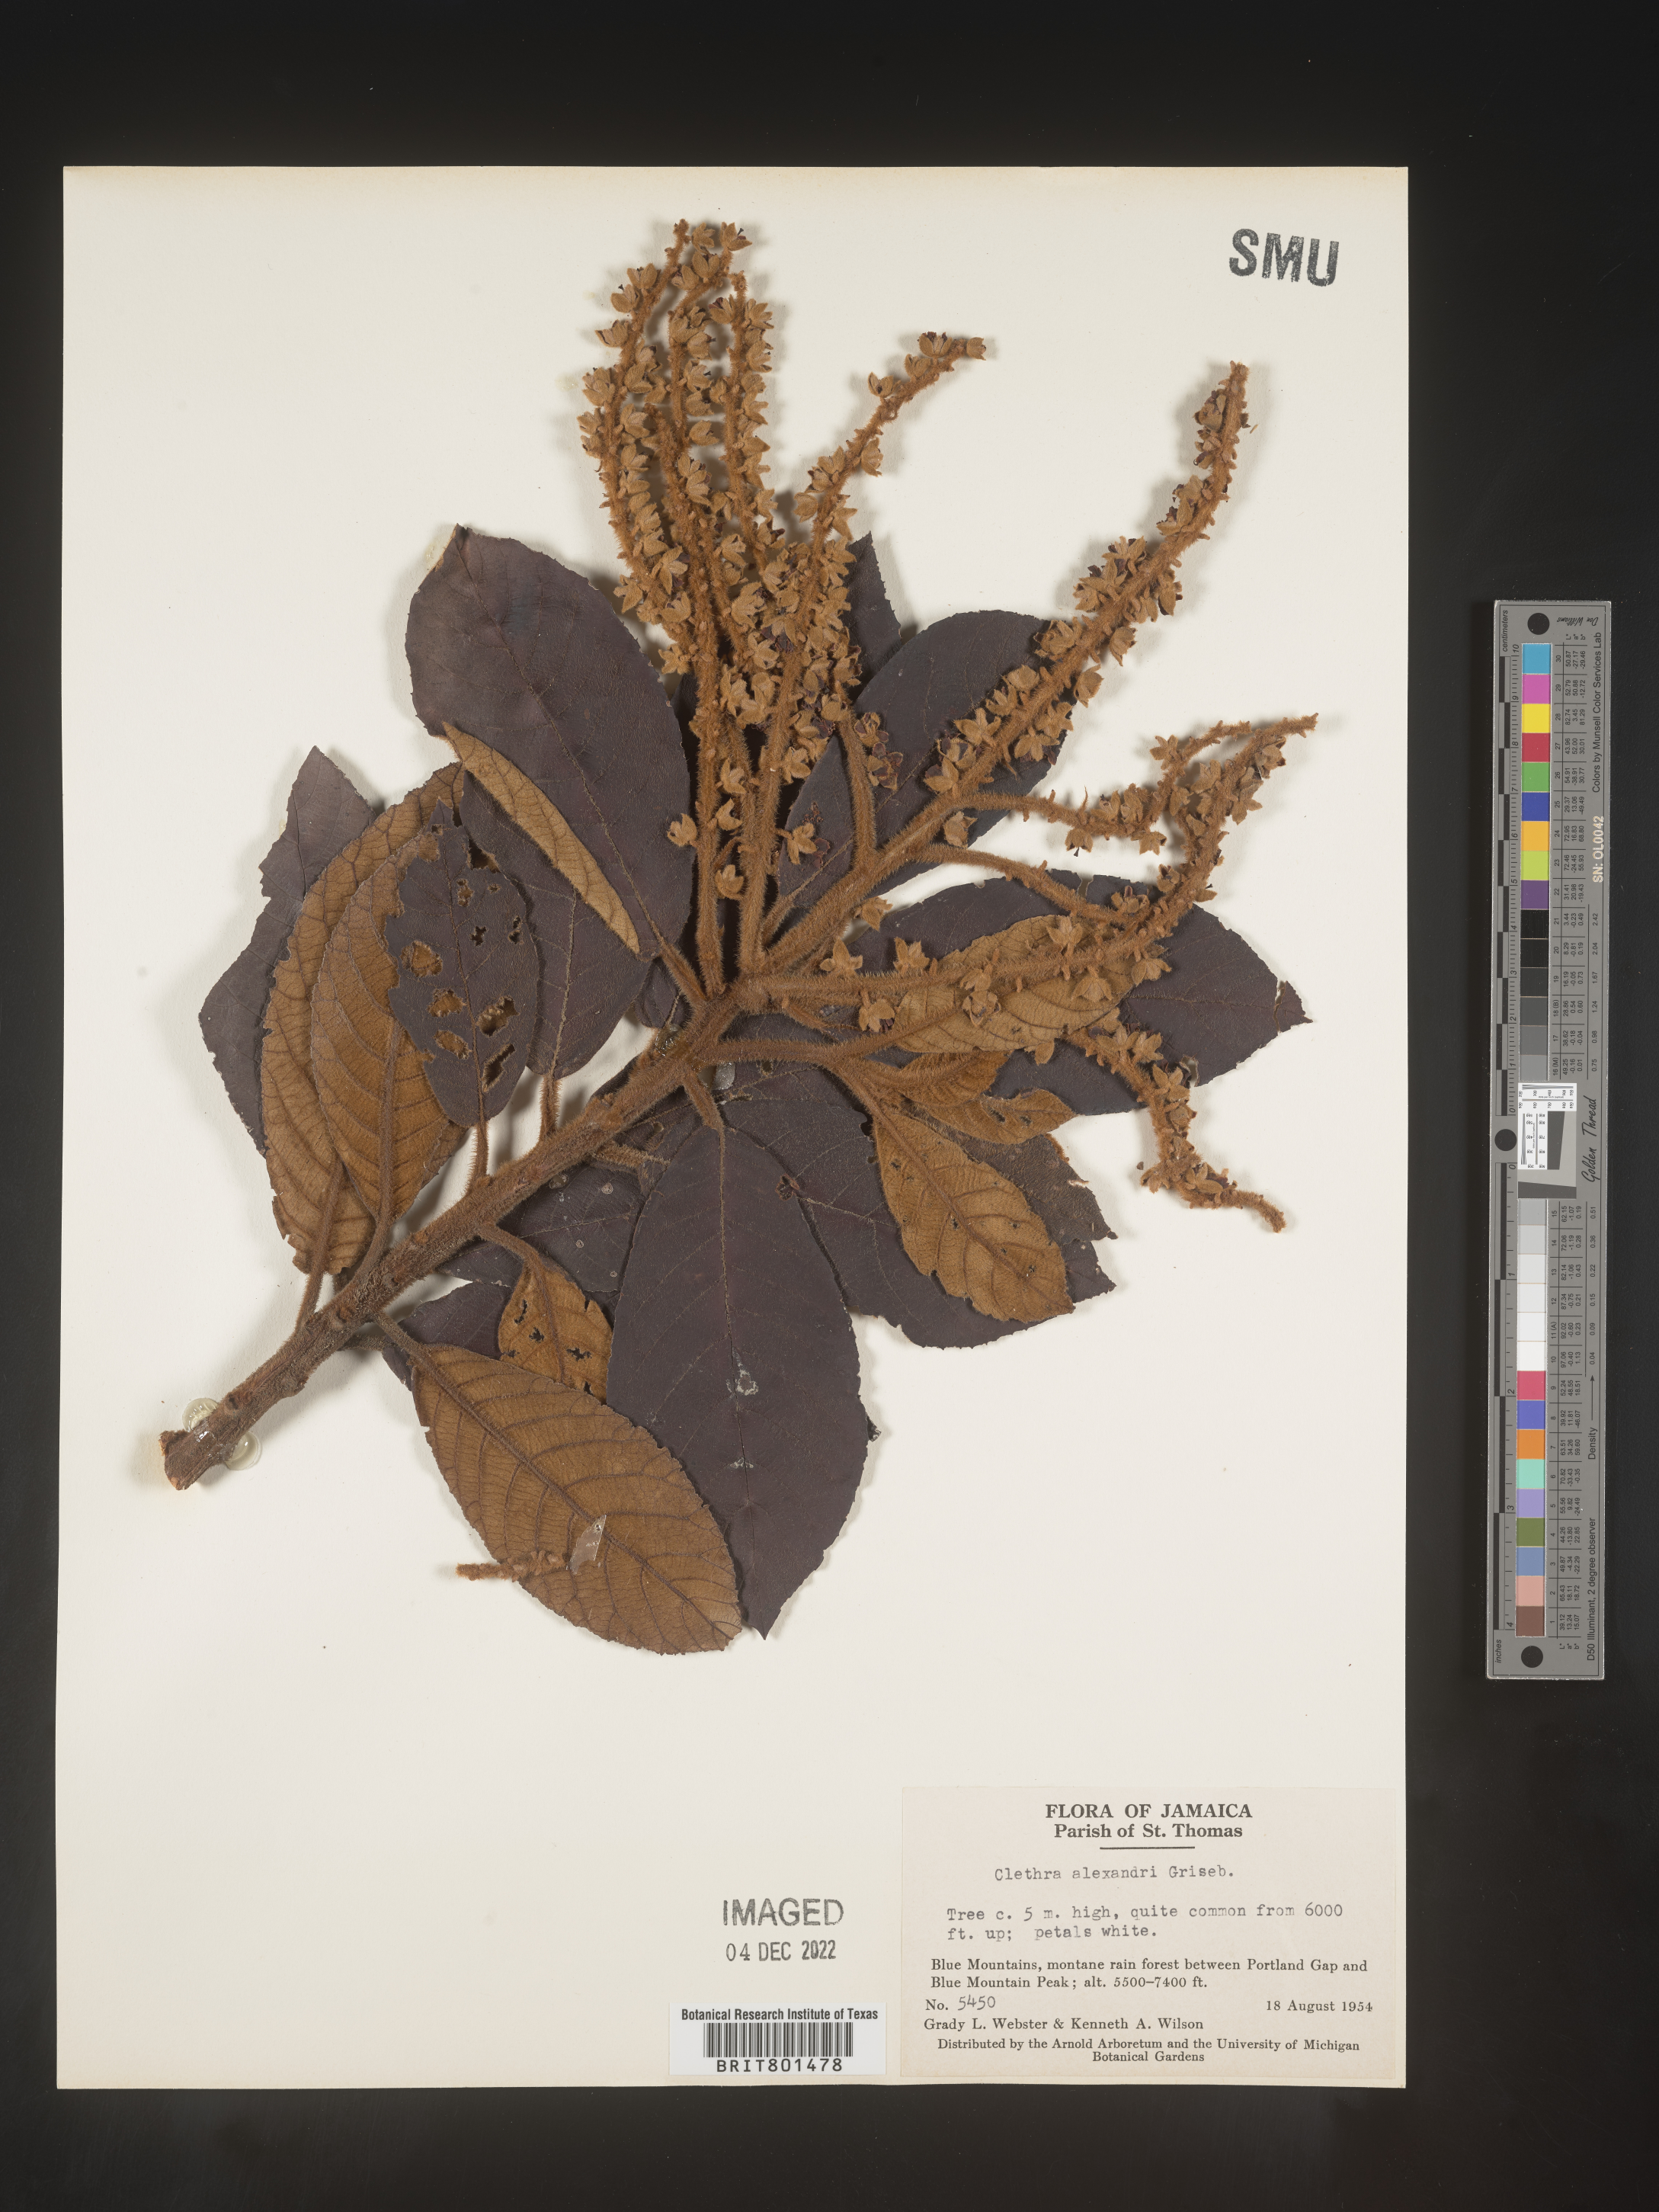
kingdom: Plantae
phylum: Tracheophyta
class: Magnoliopsida
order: Ericales
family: Clethraceae
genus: Clethra
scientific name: Clethra
